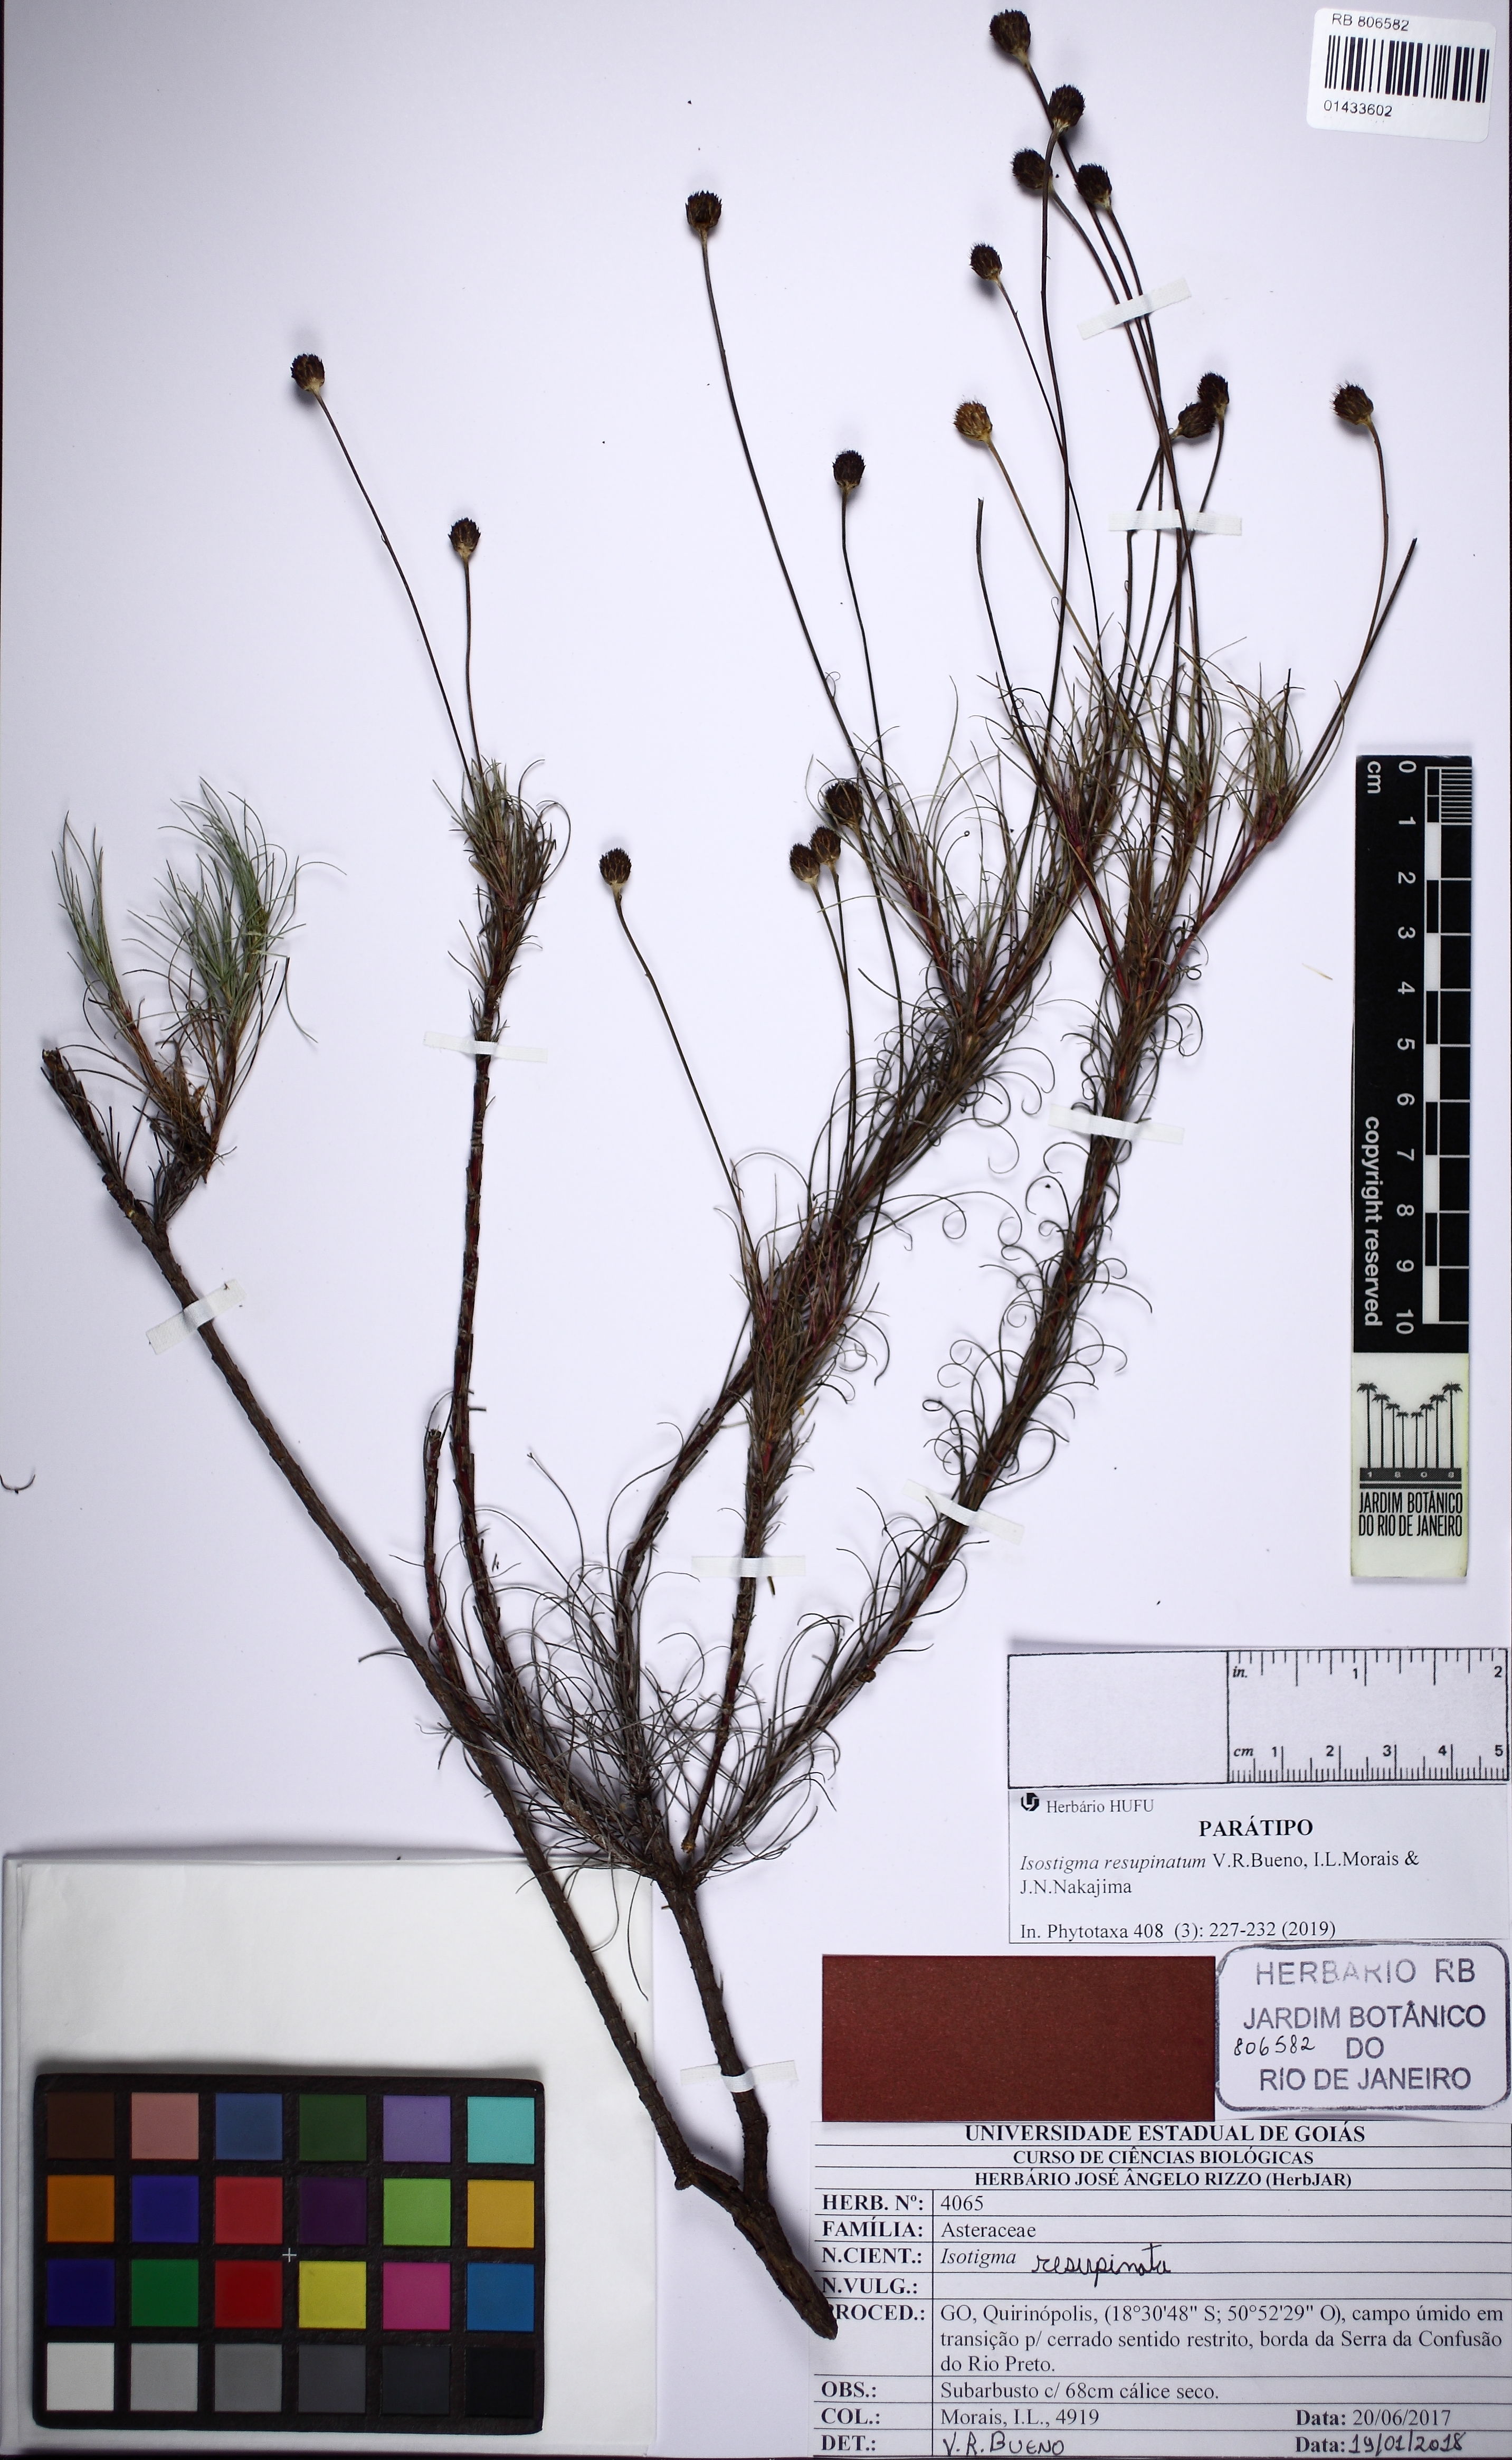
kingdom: Plantae
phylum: Tracheophyta
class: Magnoliopsida
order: Asterales
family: Asteraceae
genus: Isostigma
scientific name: Isostigma resupinatum
